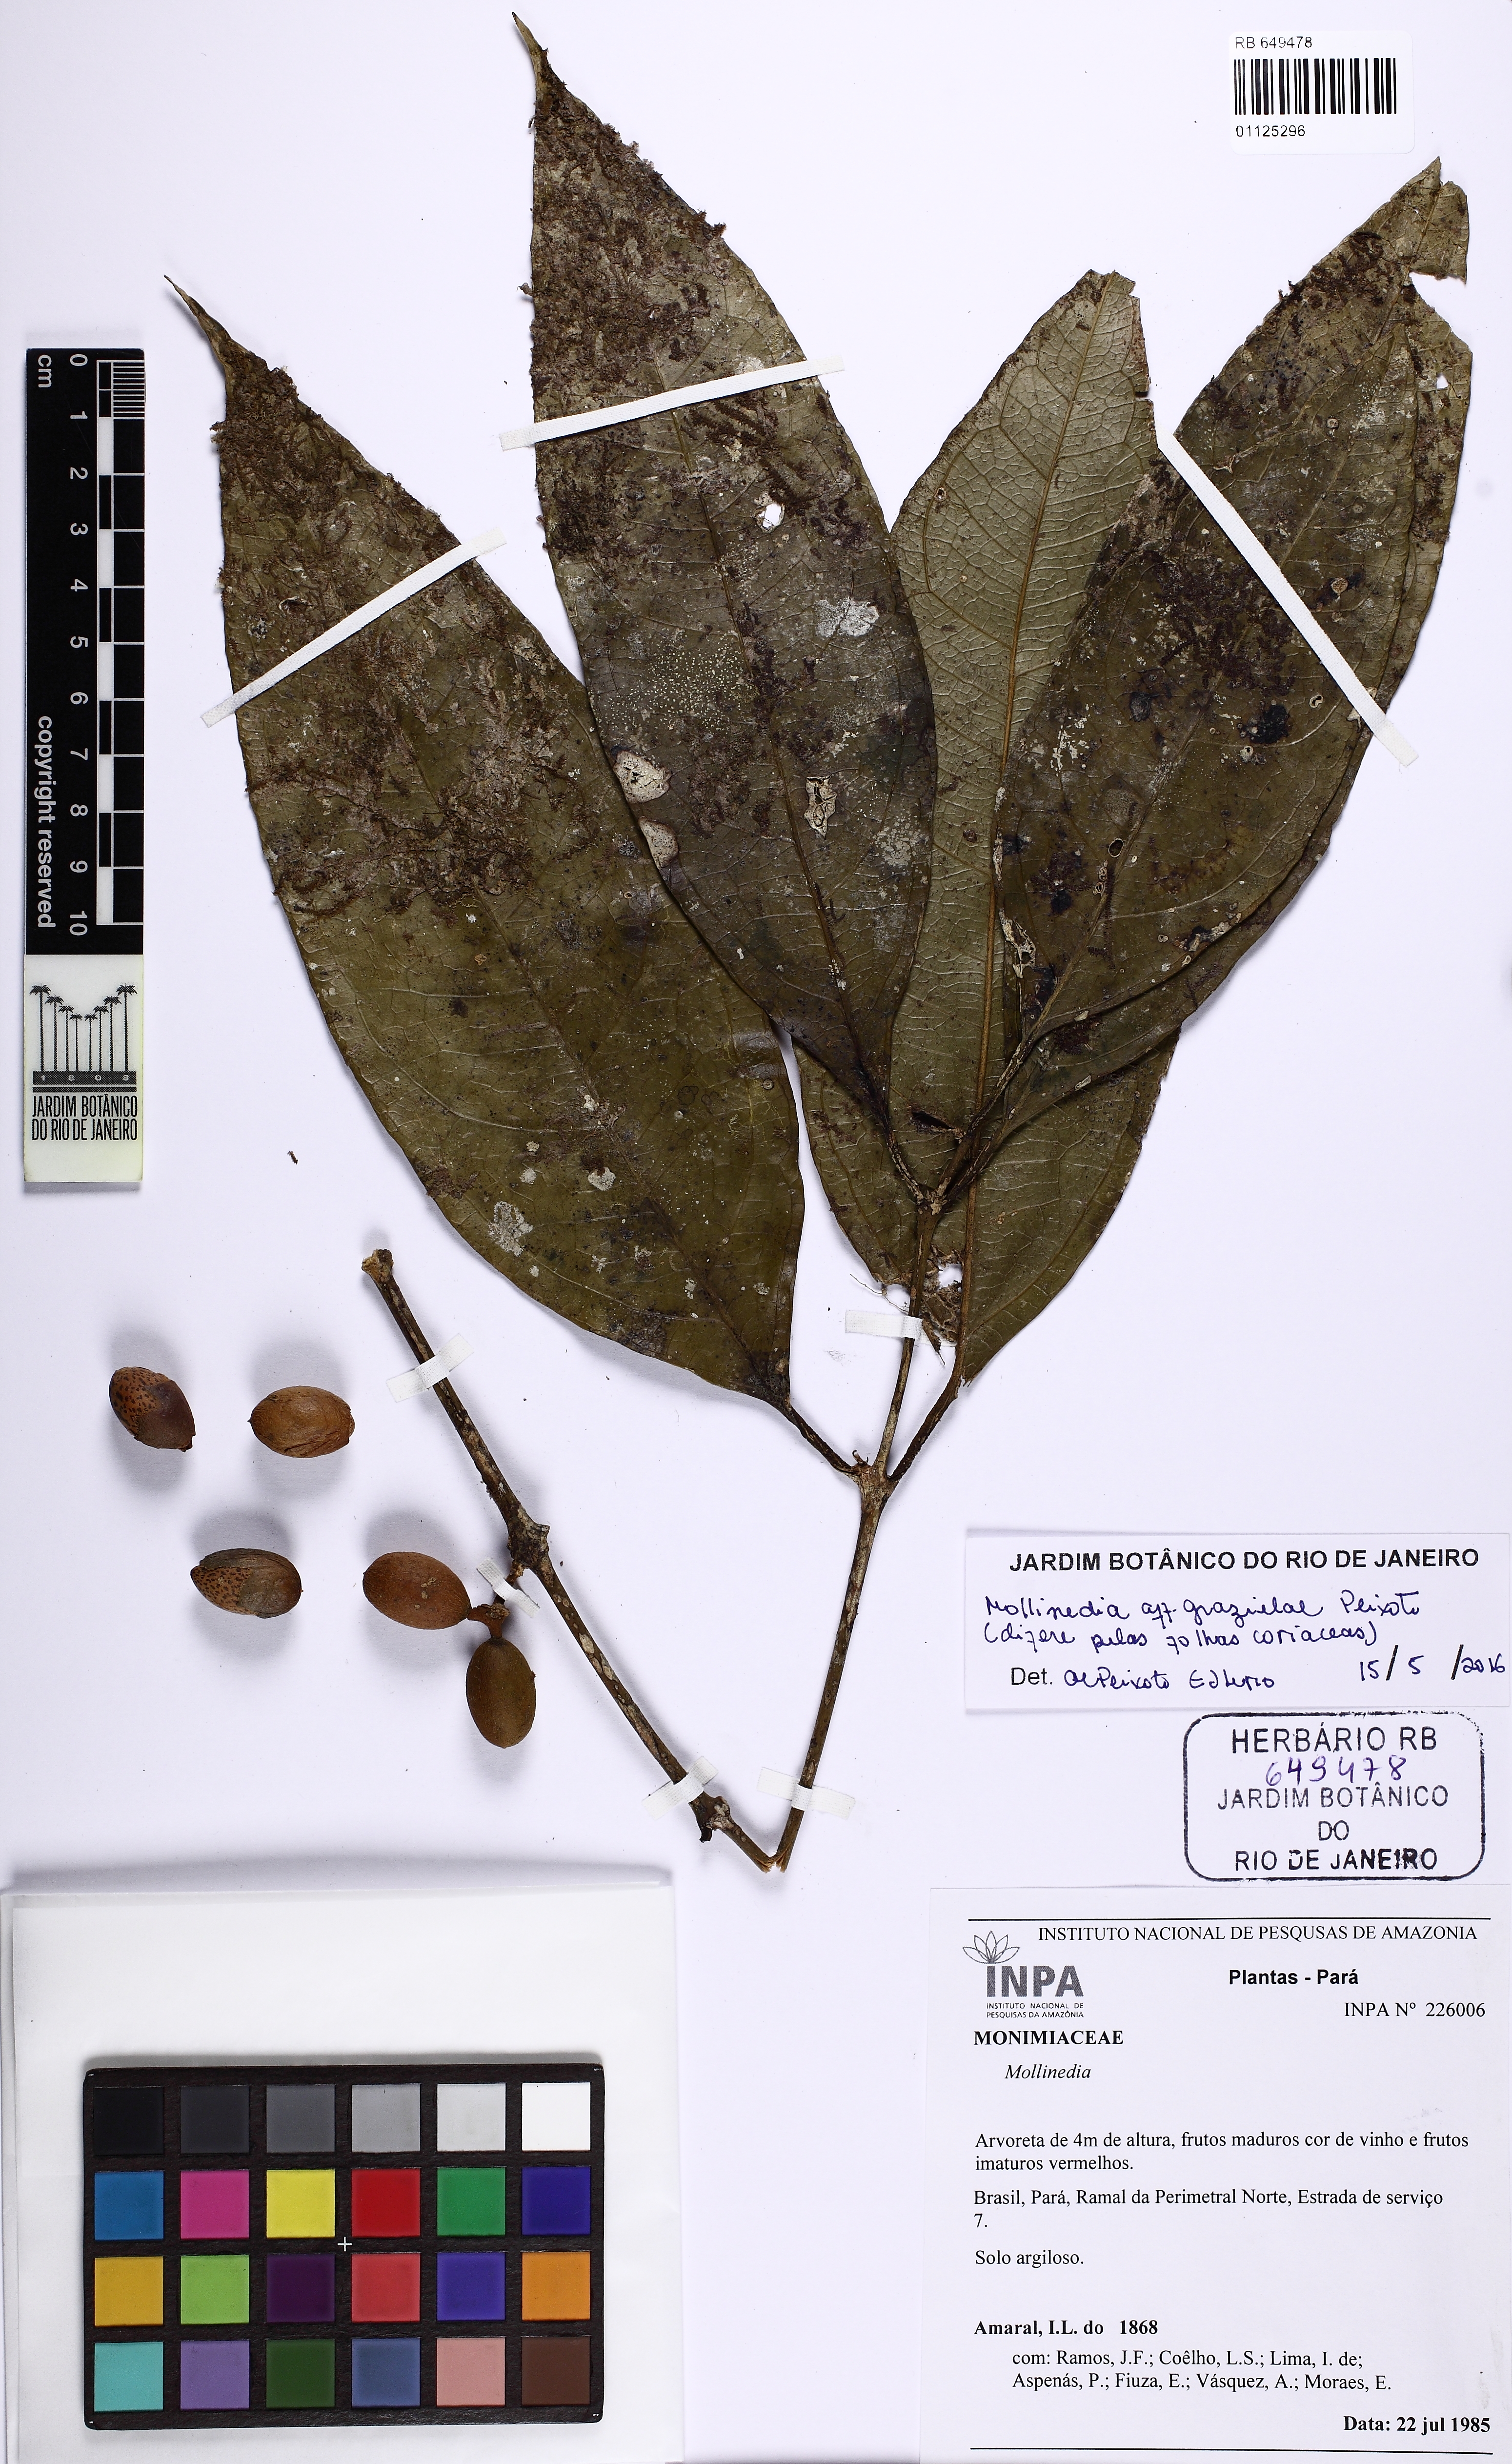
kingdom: Plantae
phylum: Tracheophyta
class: Magnoliopsida
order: Laurales
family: Monimiaceae
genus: Mollinedia
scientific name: Mollinedia grazielae
